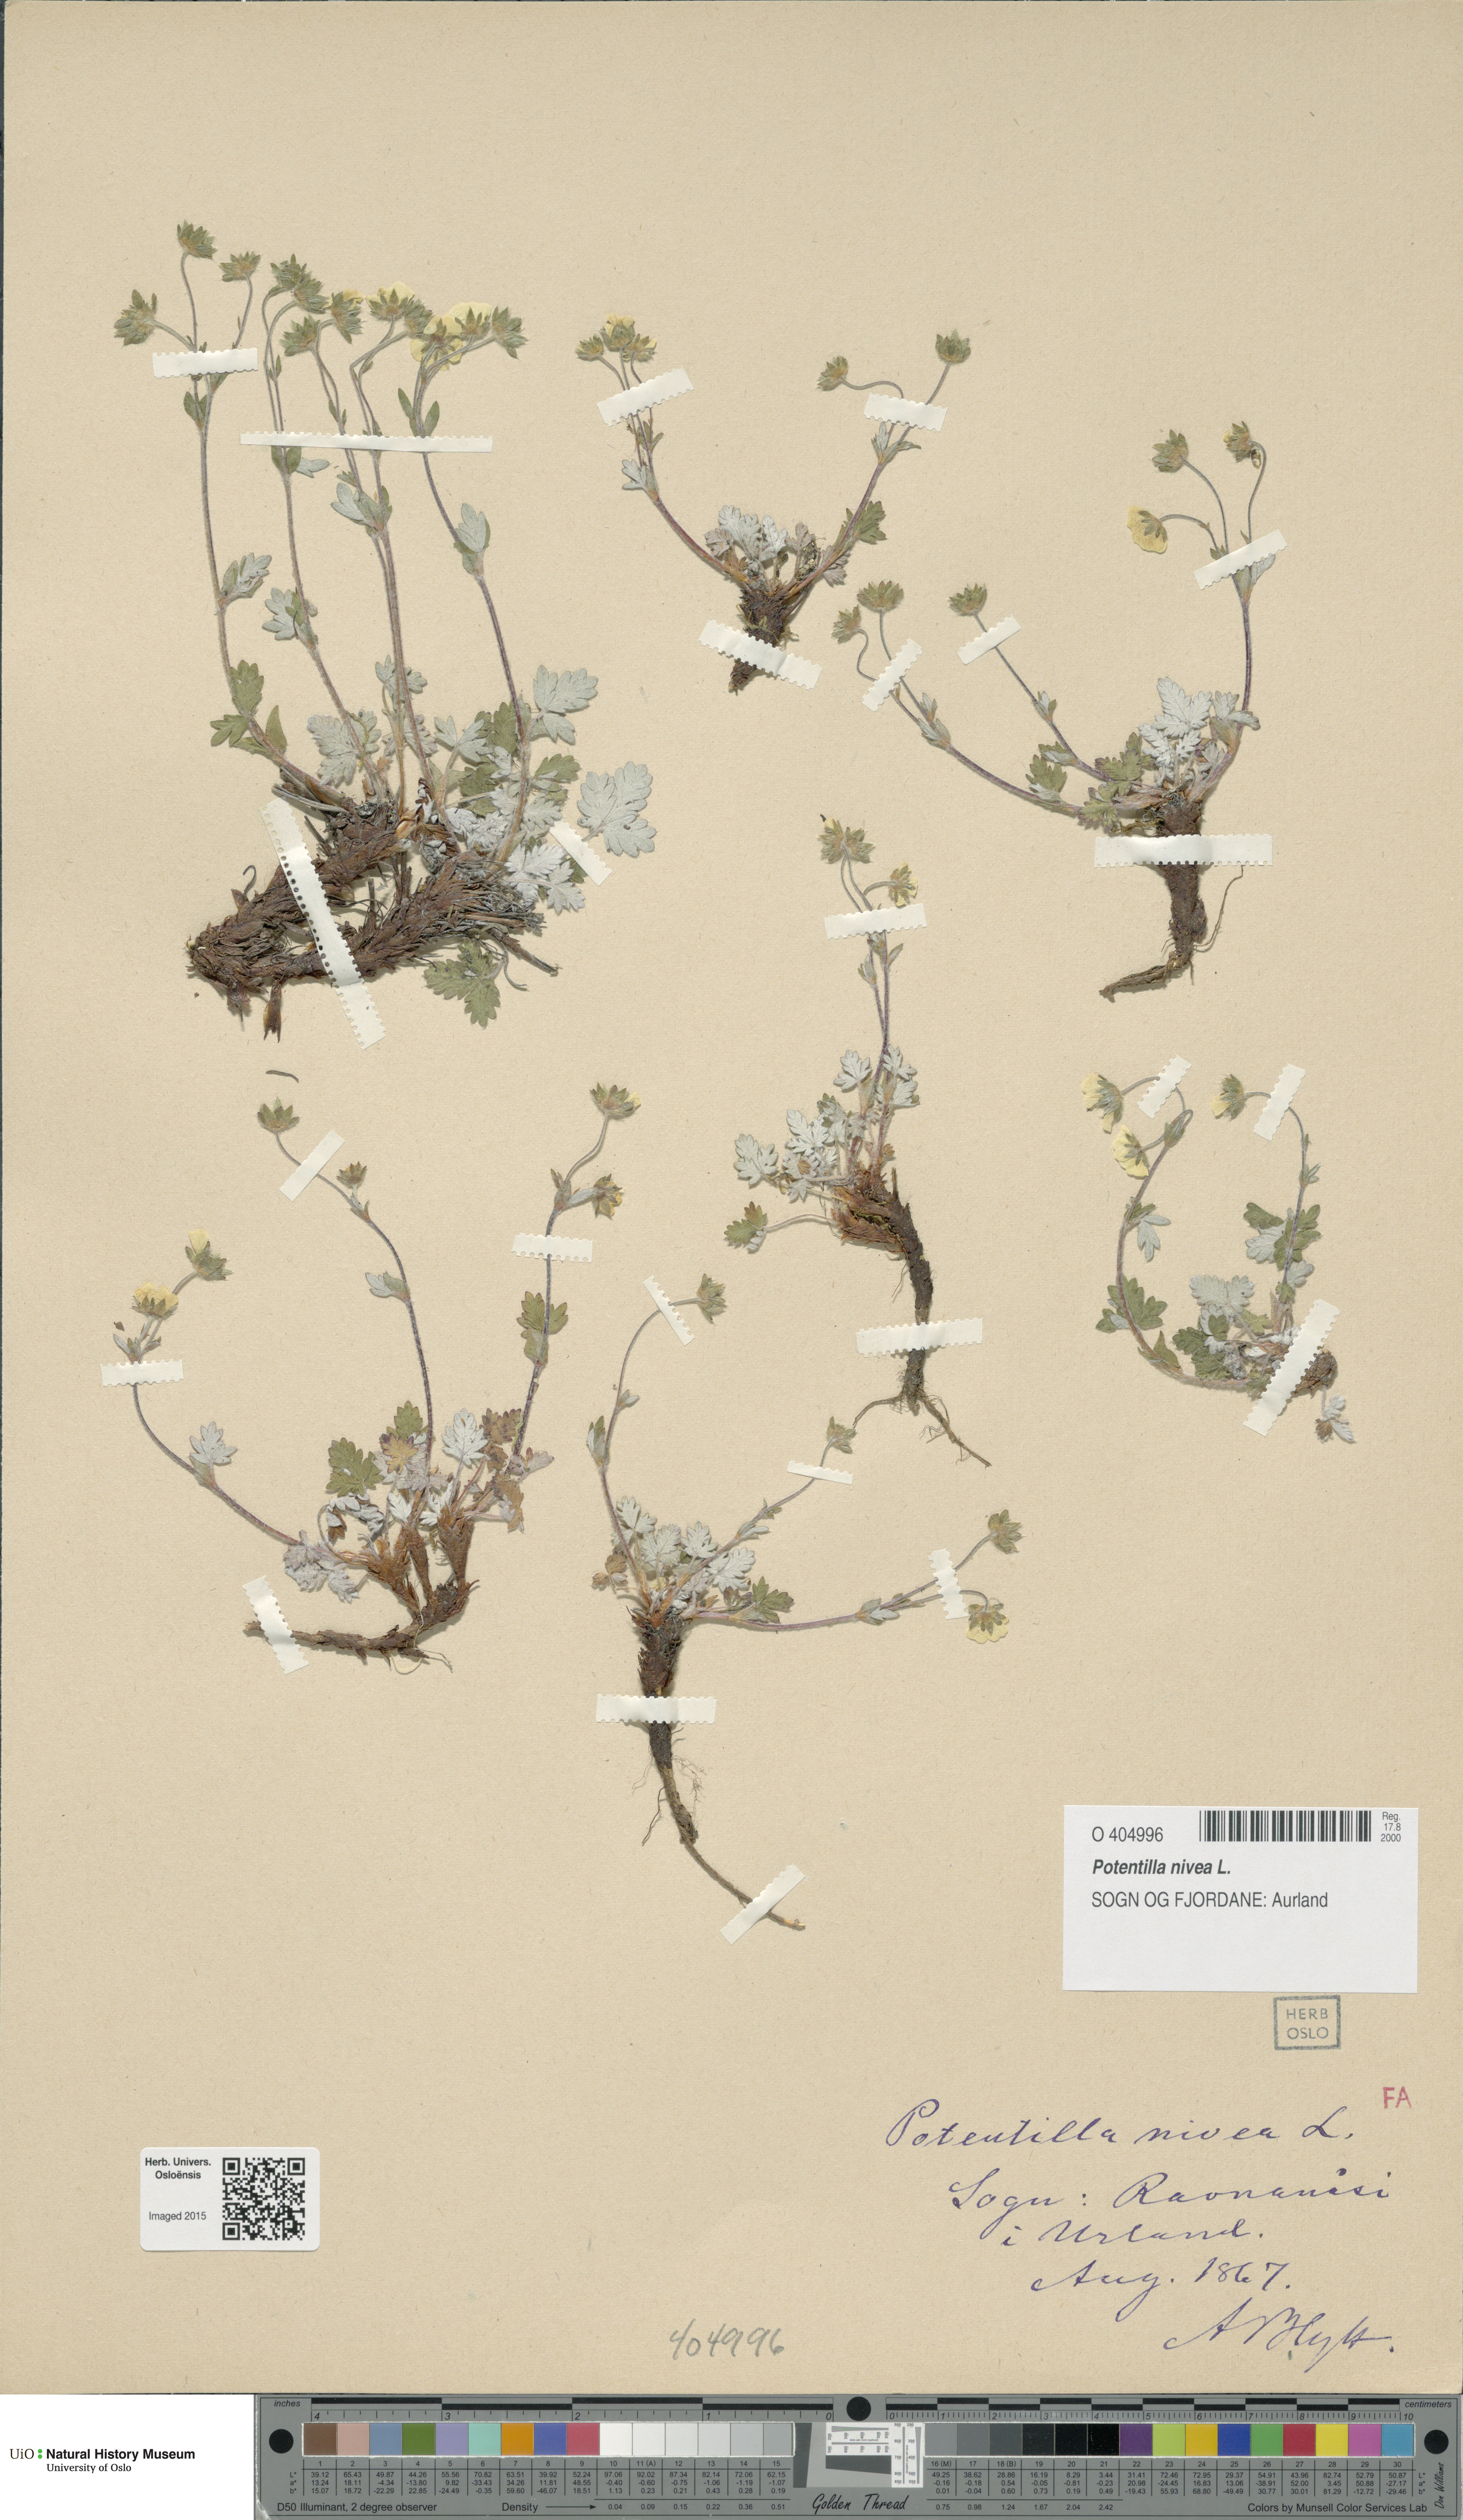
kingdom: Plantae
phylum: Tracheophyta
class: Magnoliopsida
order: Rosales
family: Rosaceae
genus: Potentilla
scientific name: Potentilla arenosa
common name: Bluff cinquefoil
